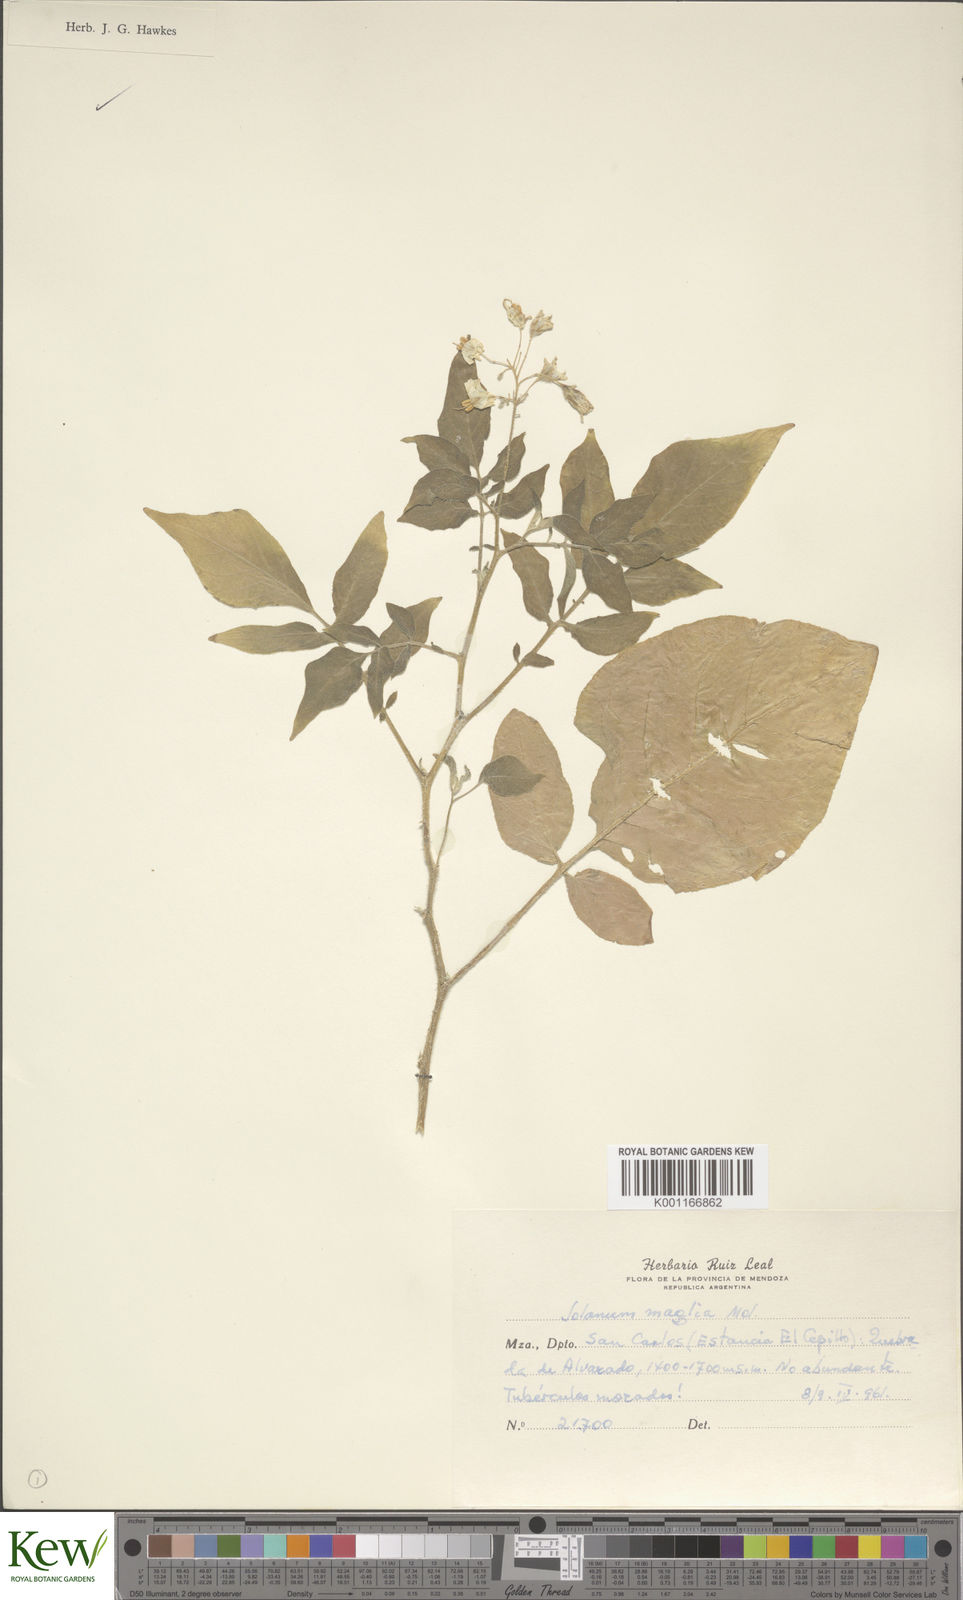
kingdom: Plantae
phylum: Tracheophyta
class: Magnoliopsida
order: Solanales
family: Solanaceae
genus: Solanum
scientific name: Solanum maglia
